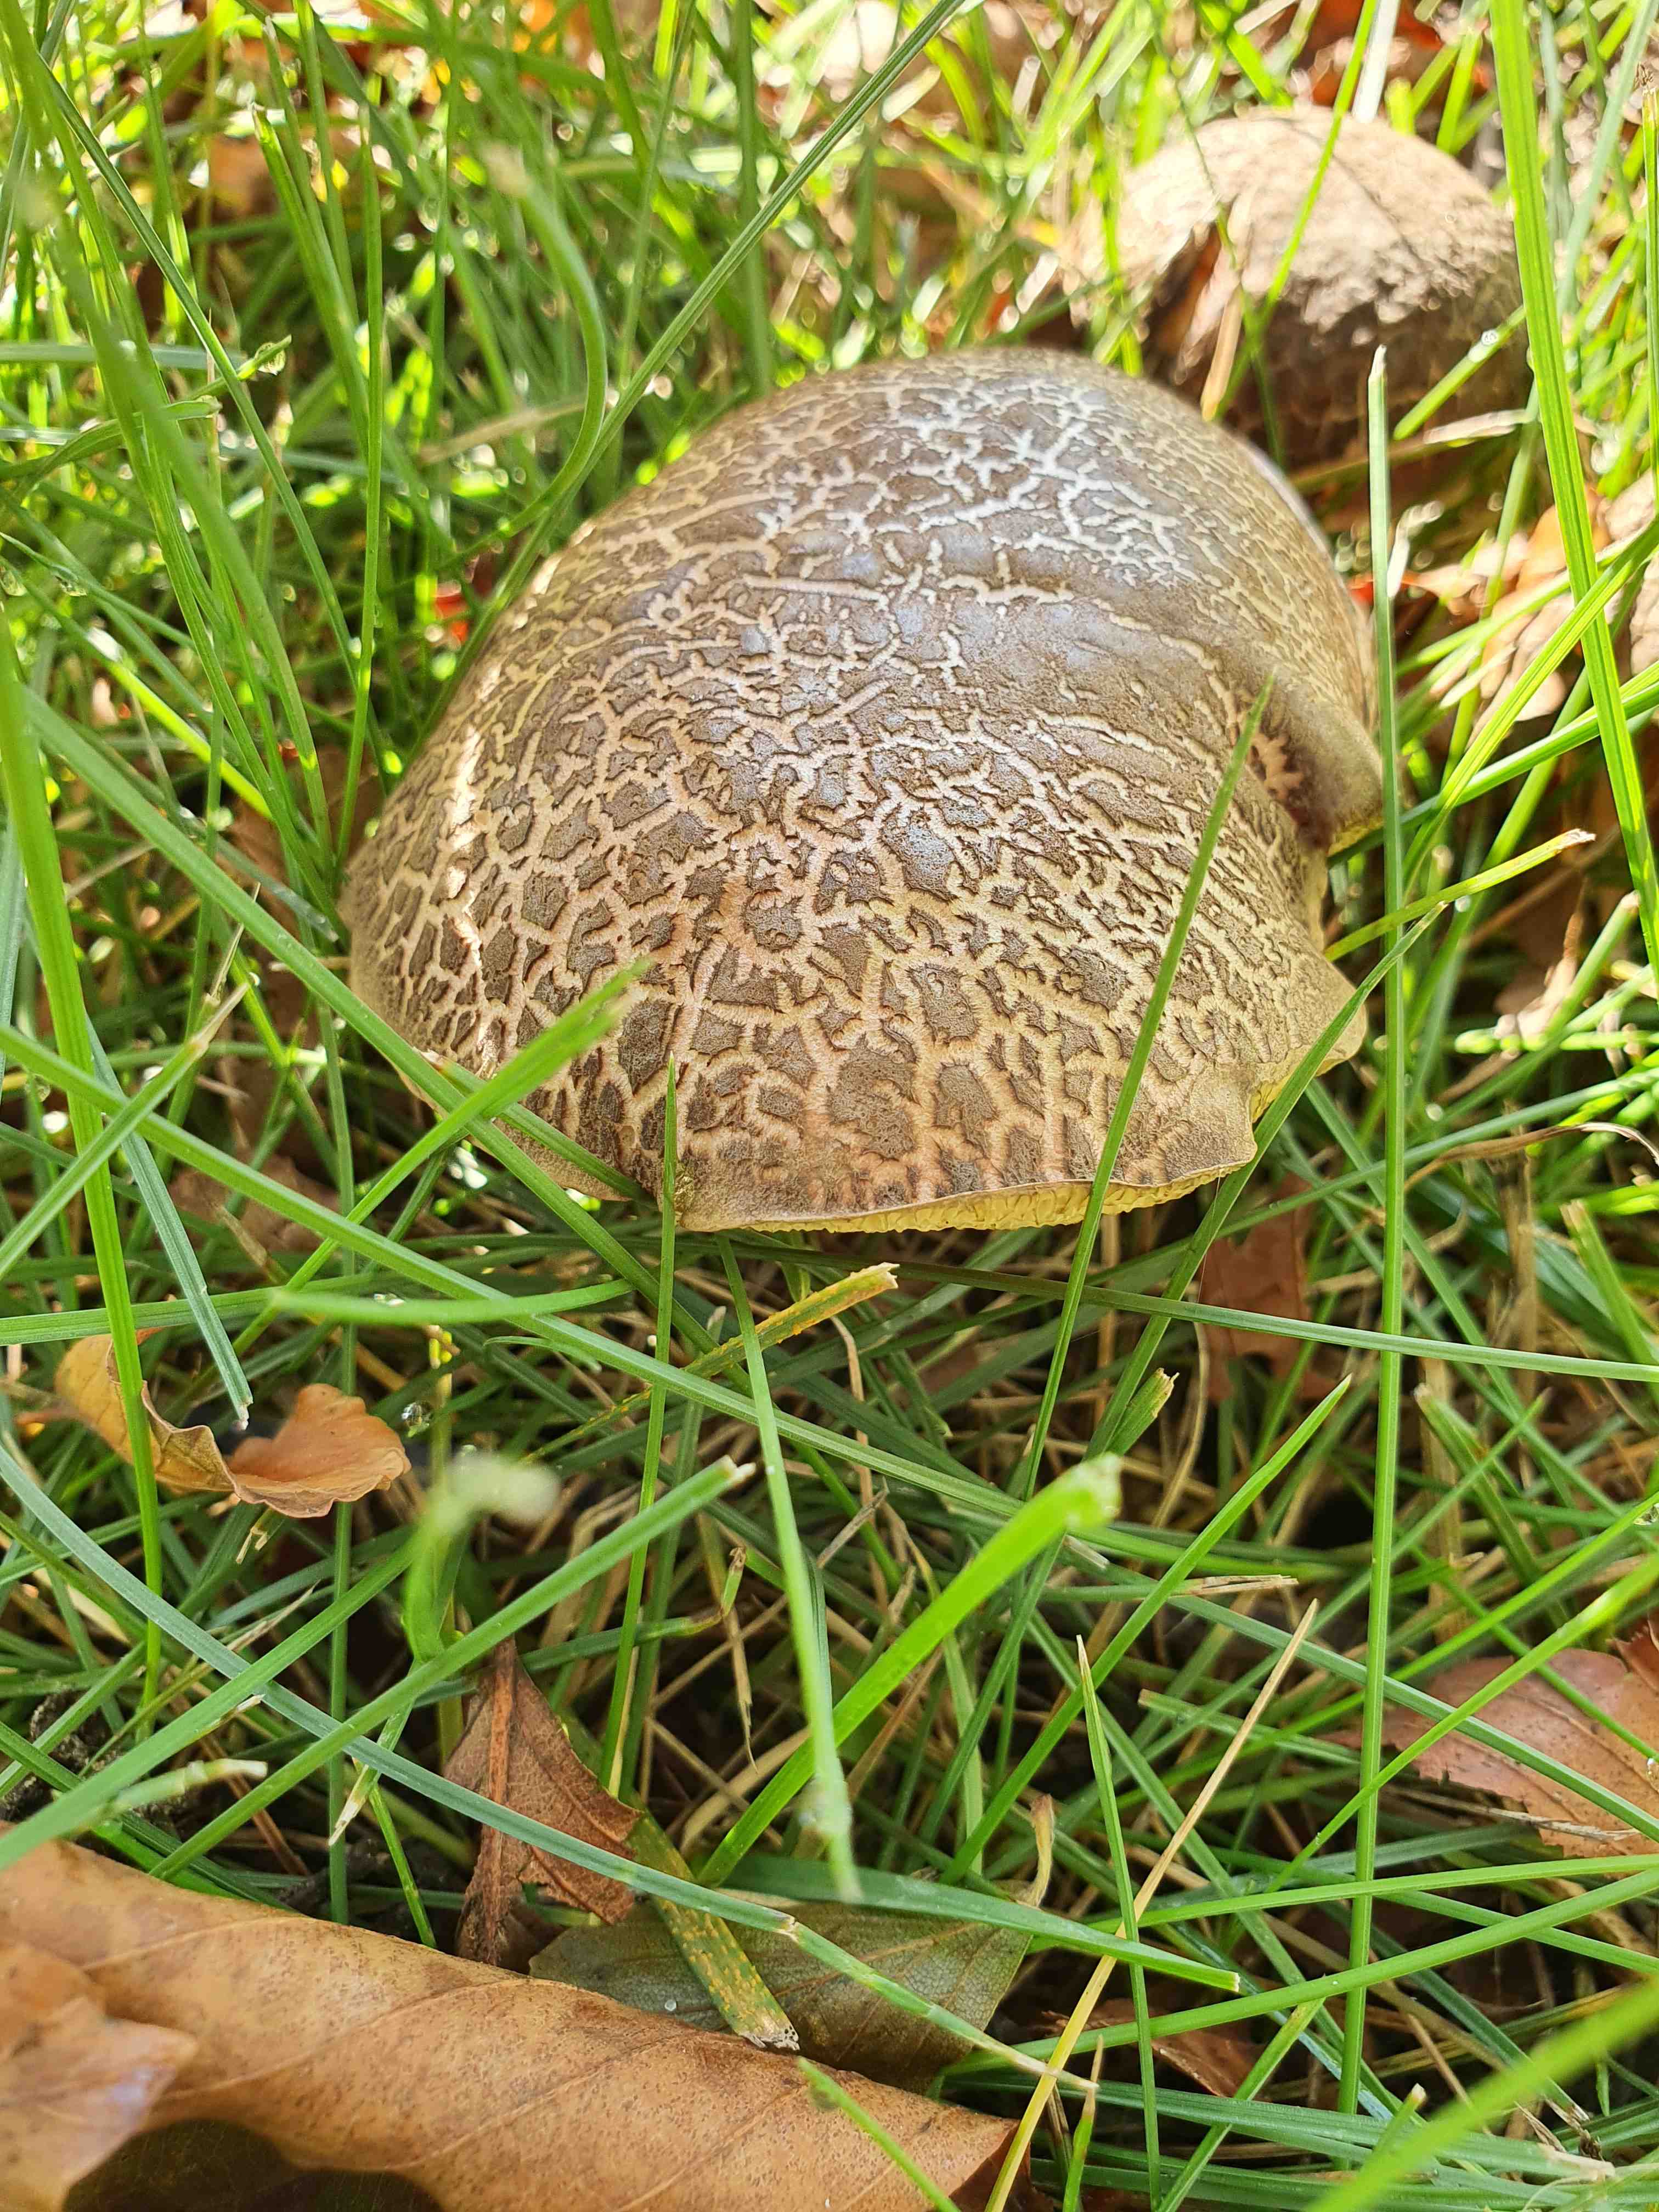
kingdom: Fungi
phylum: Basidiomycota
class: Agaricomycetes
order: Boletales
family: Boletaceae
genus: Xerocomellus
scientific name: Xerocomellus cisalpinus
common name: finsprukken rørhat
